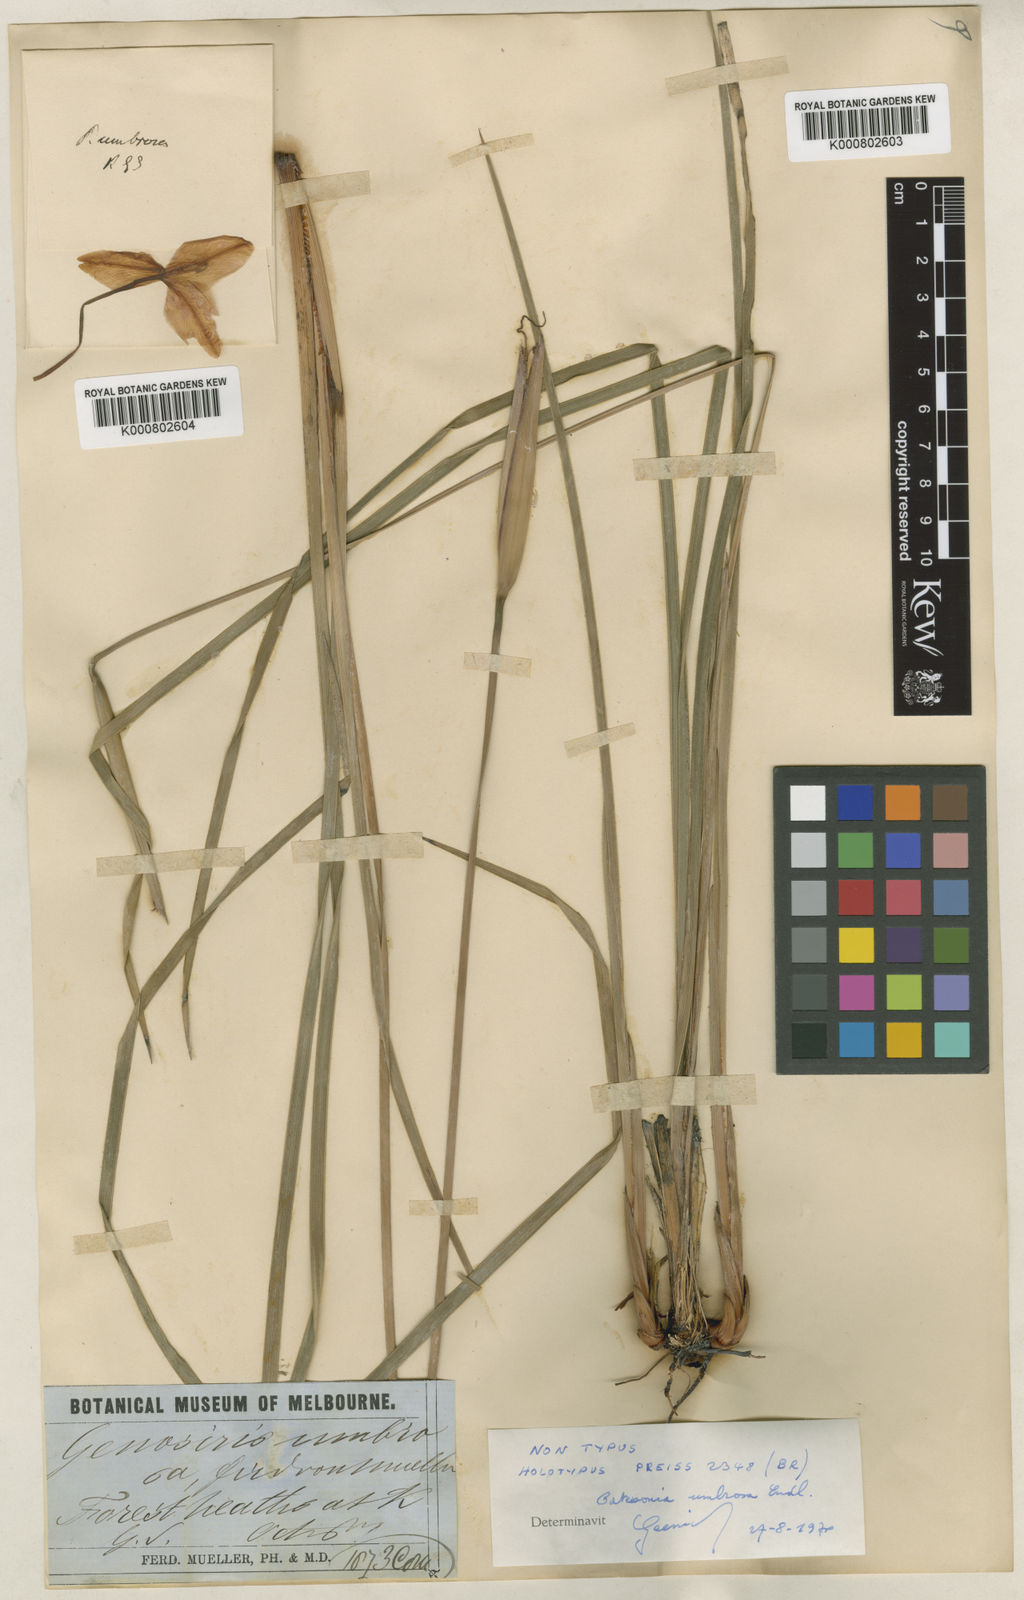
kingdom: Plantae
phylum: Tracheophyta
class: Liliopsida
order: Asparagales
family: Iridaceae
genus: Patersonia
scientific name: Patersonia umbrosa
